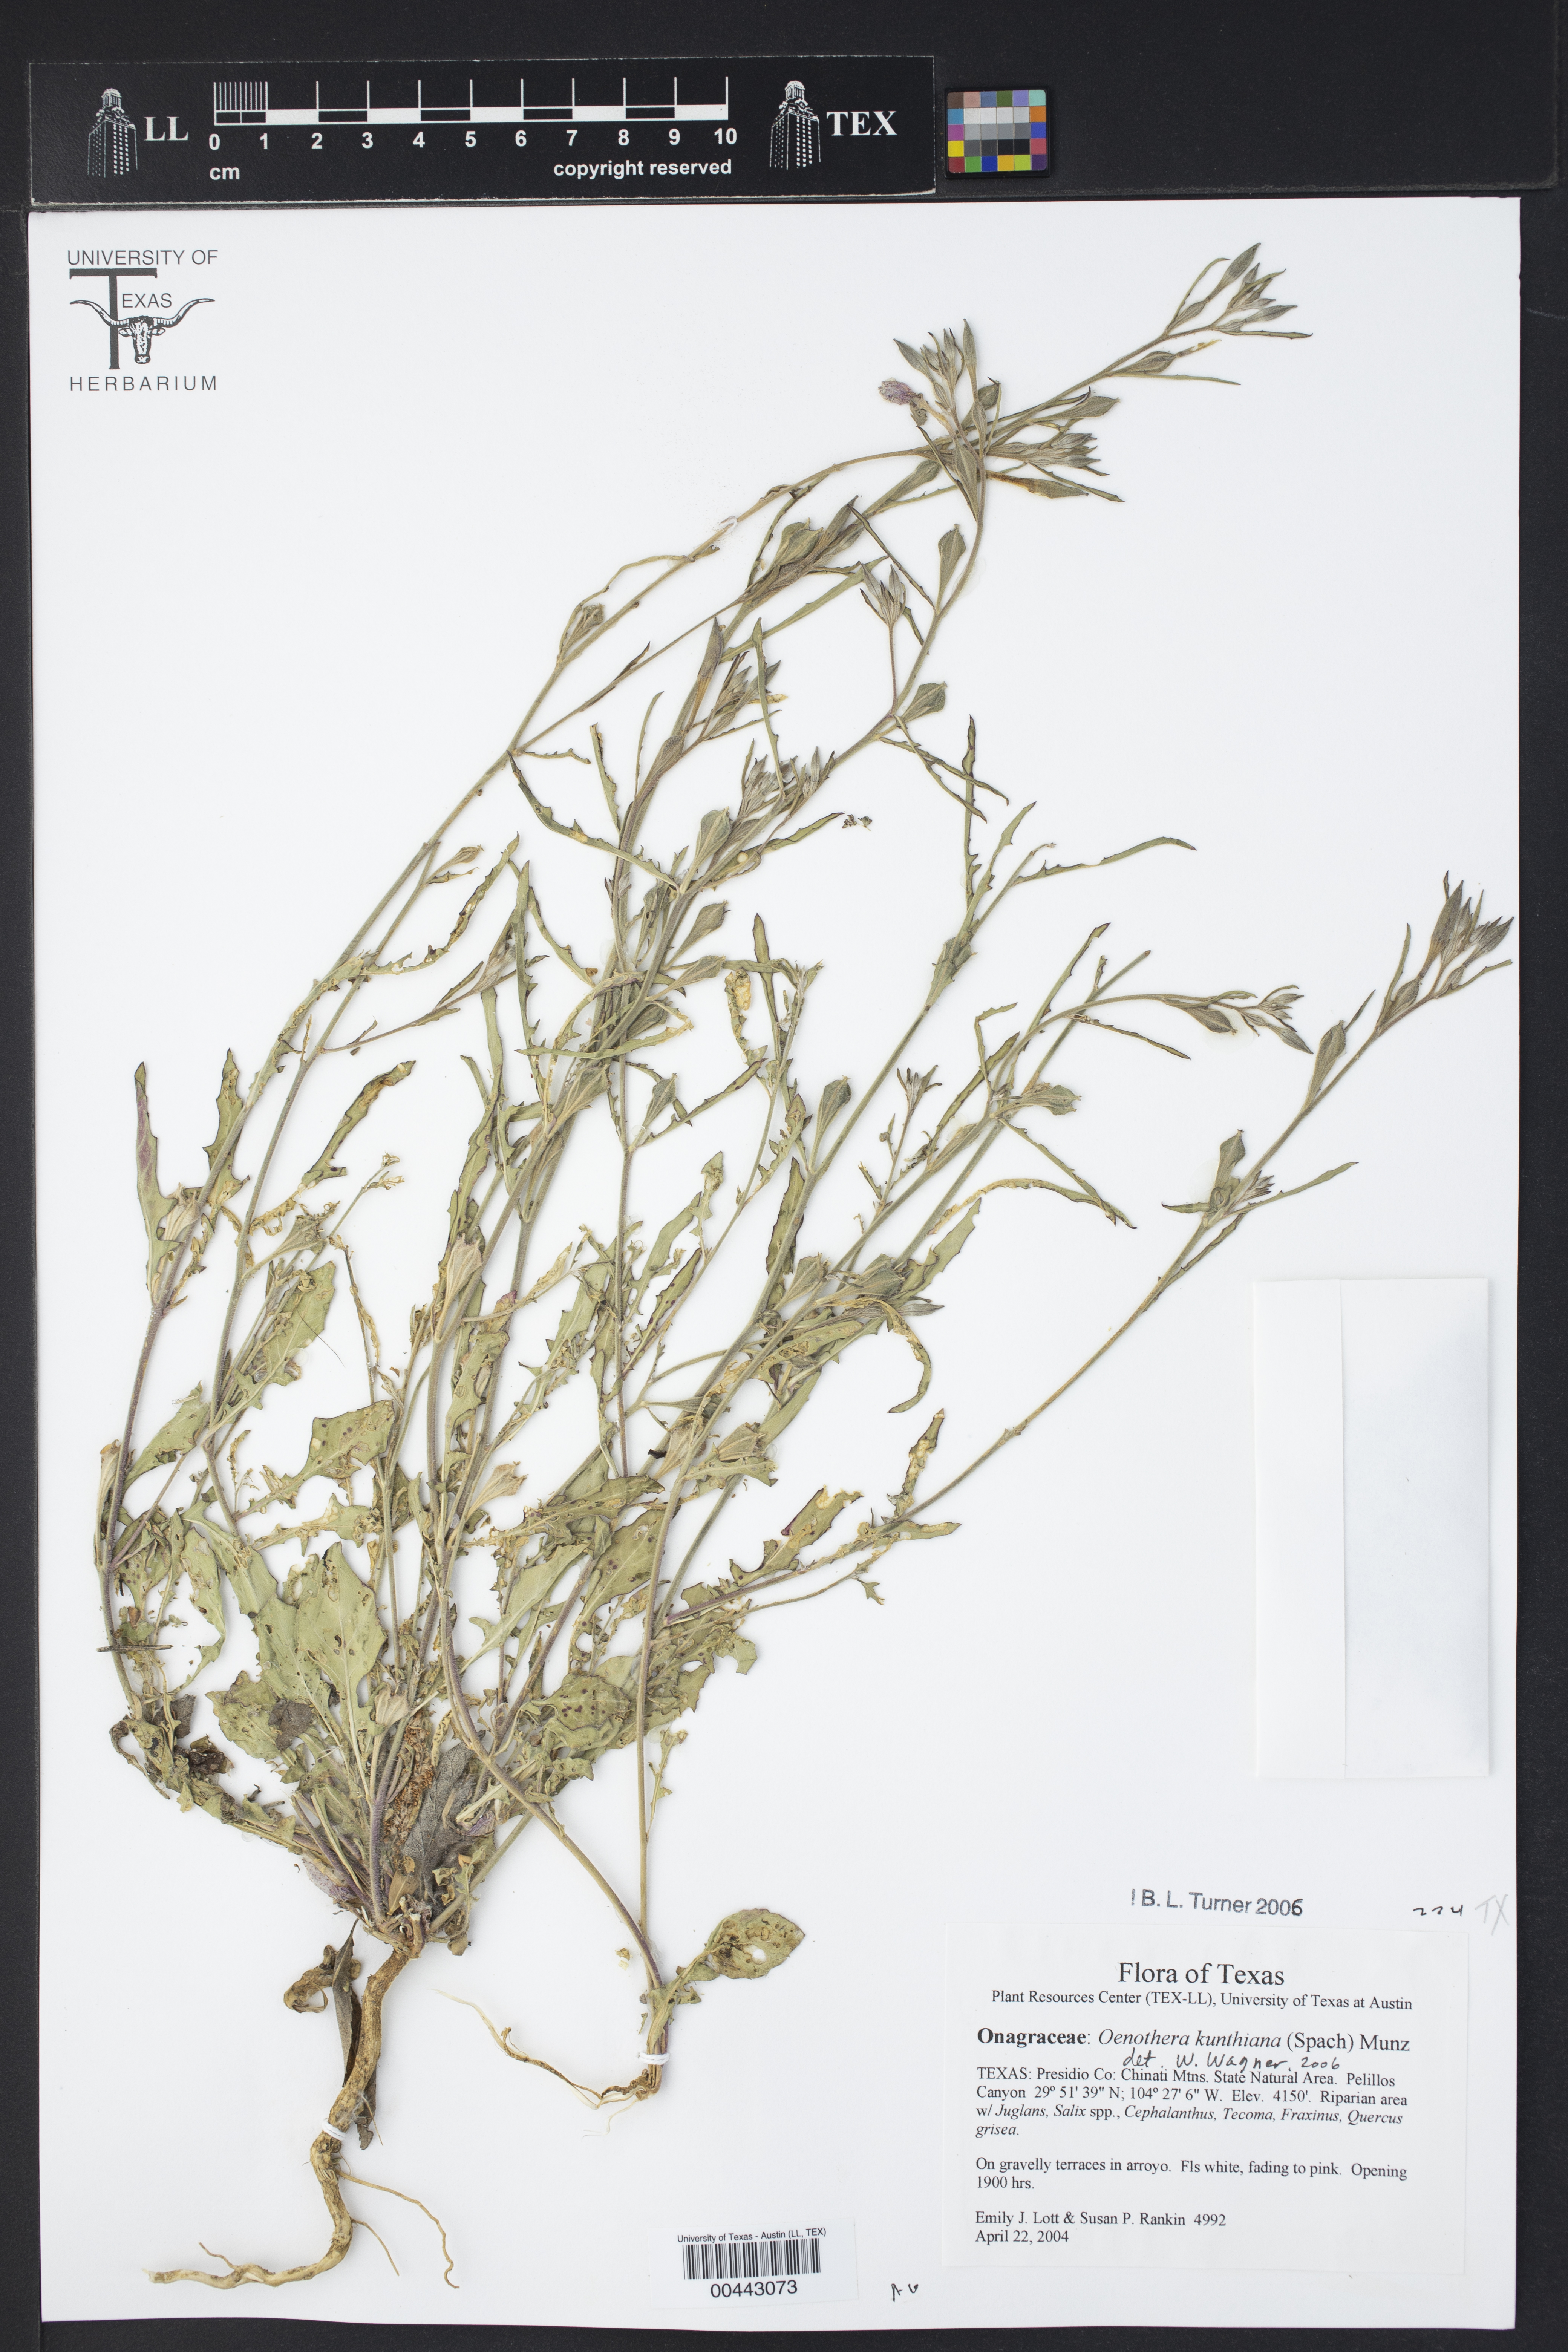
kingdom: Plantae
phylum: Tracheophyta
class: Magnoliopsida
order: Myrtales
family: Onagraceae
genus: Oenothera
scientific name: Oenothera kunthiana
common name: Kunth's evening-primrose
